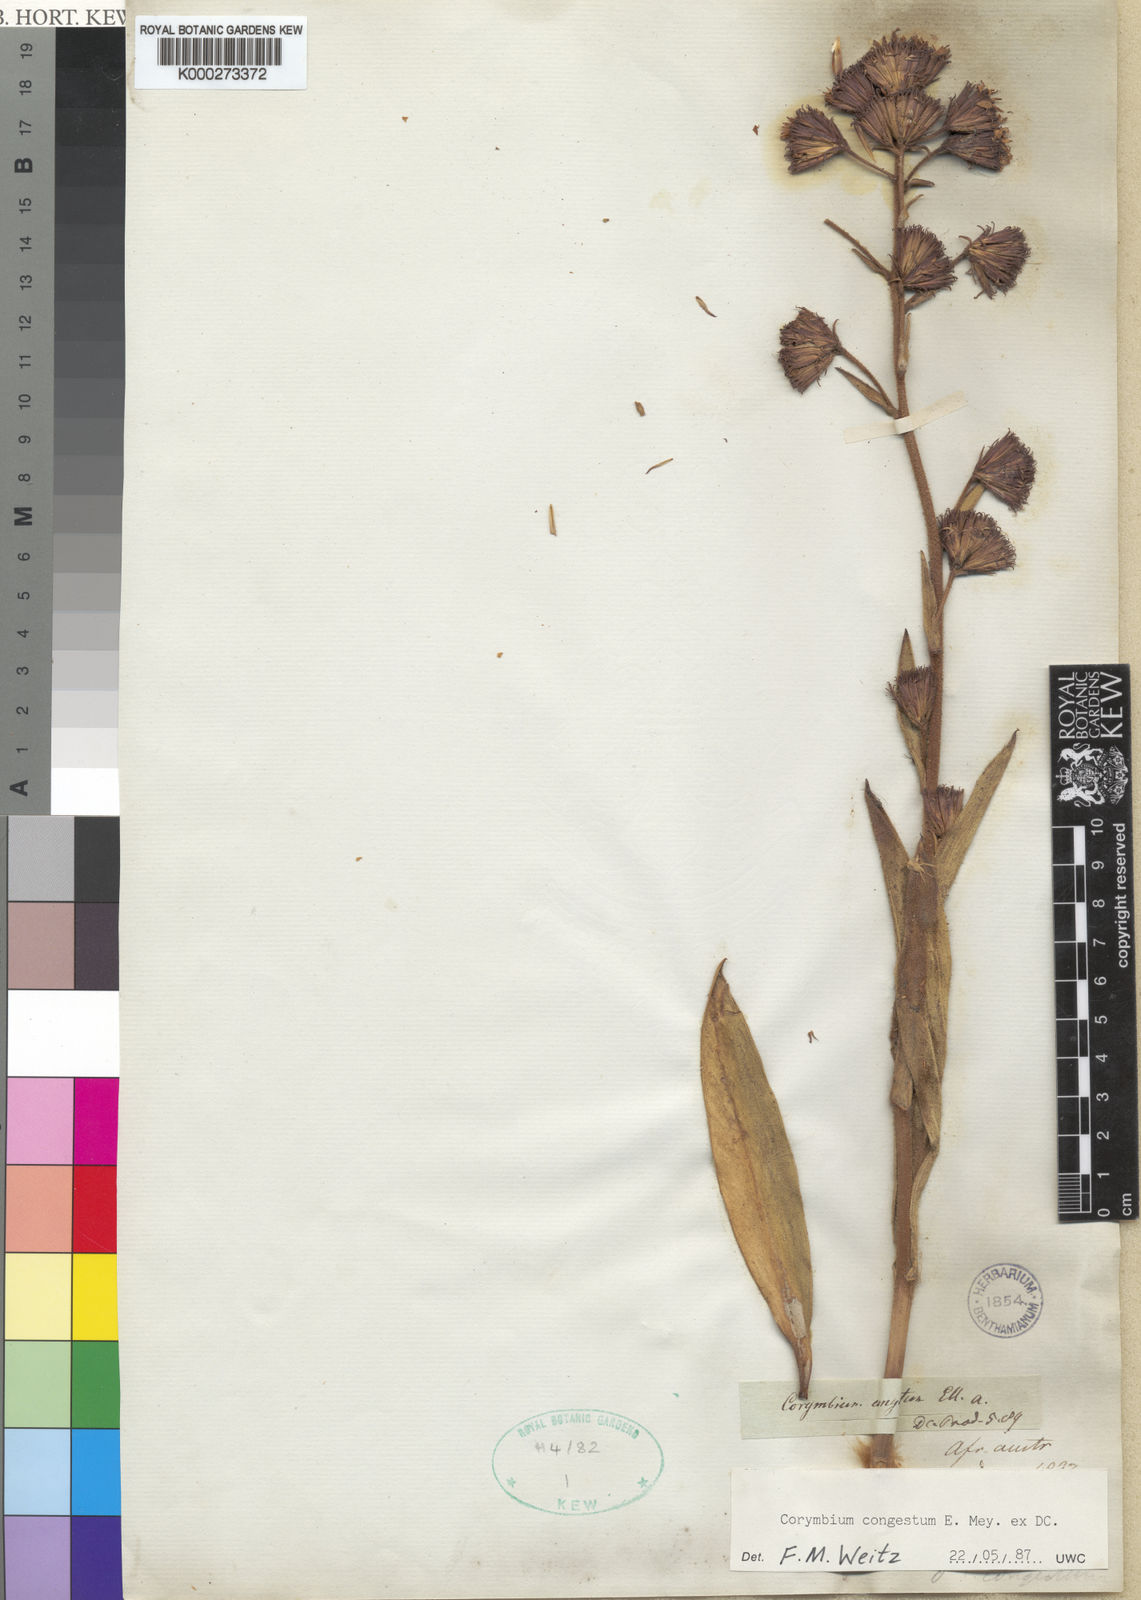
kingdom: Plantae
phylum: Tracheophyta
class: Magnoliopsida
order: Asterales
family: Asteraceae
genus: Corymbium
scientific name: Corymbium congestum
